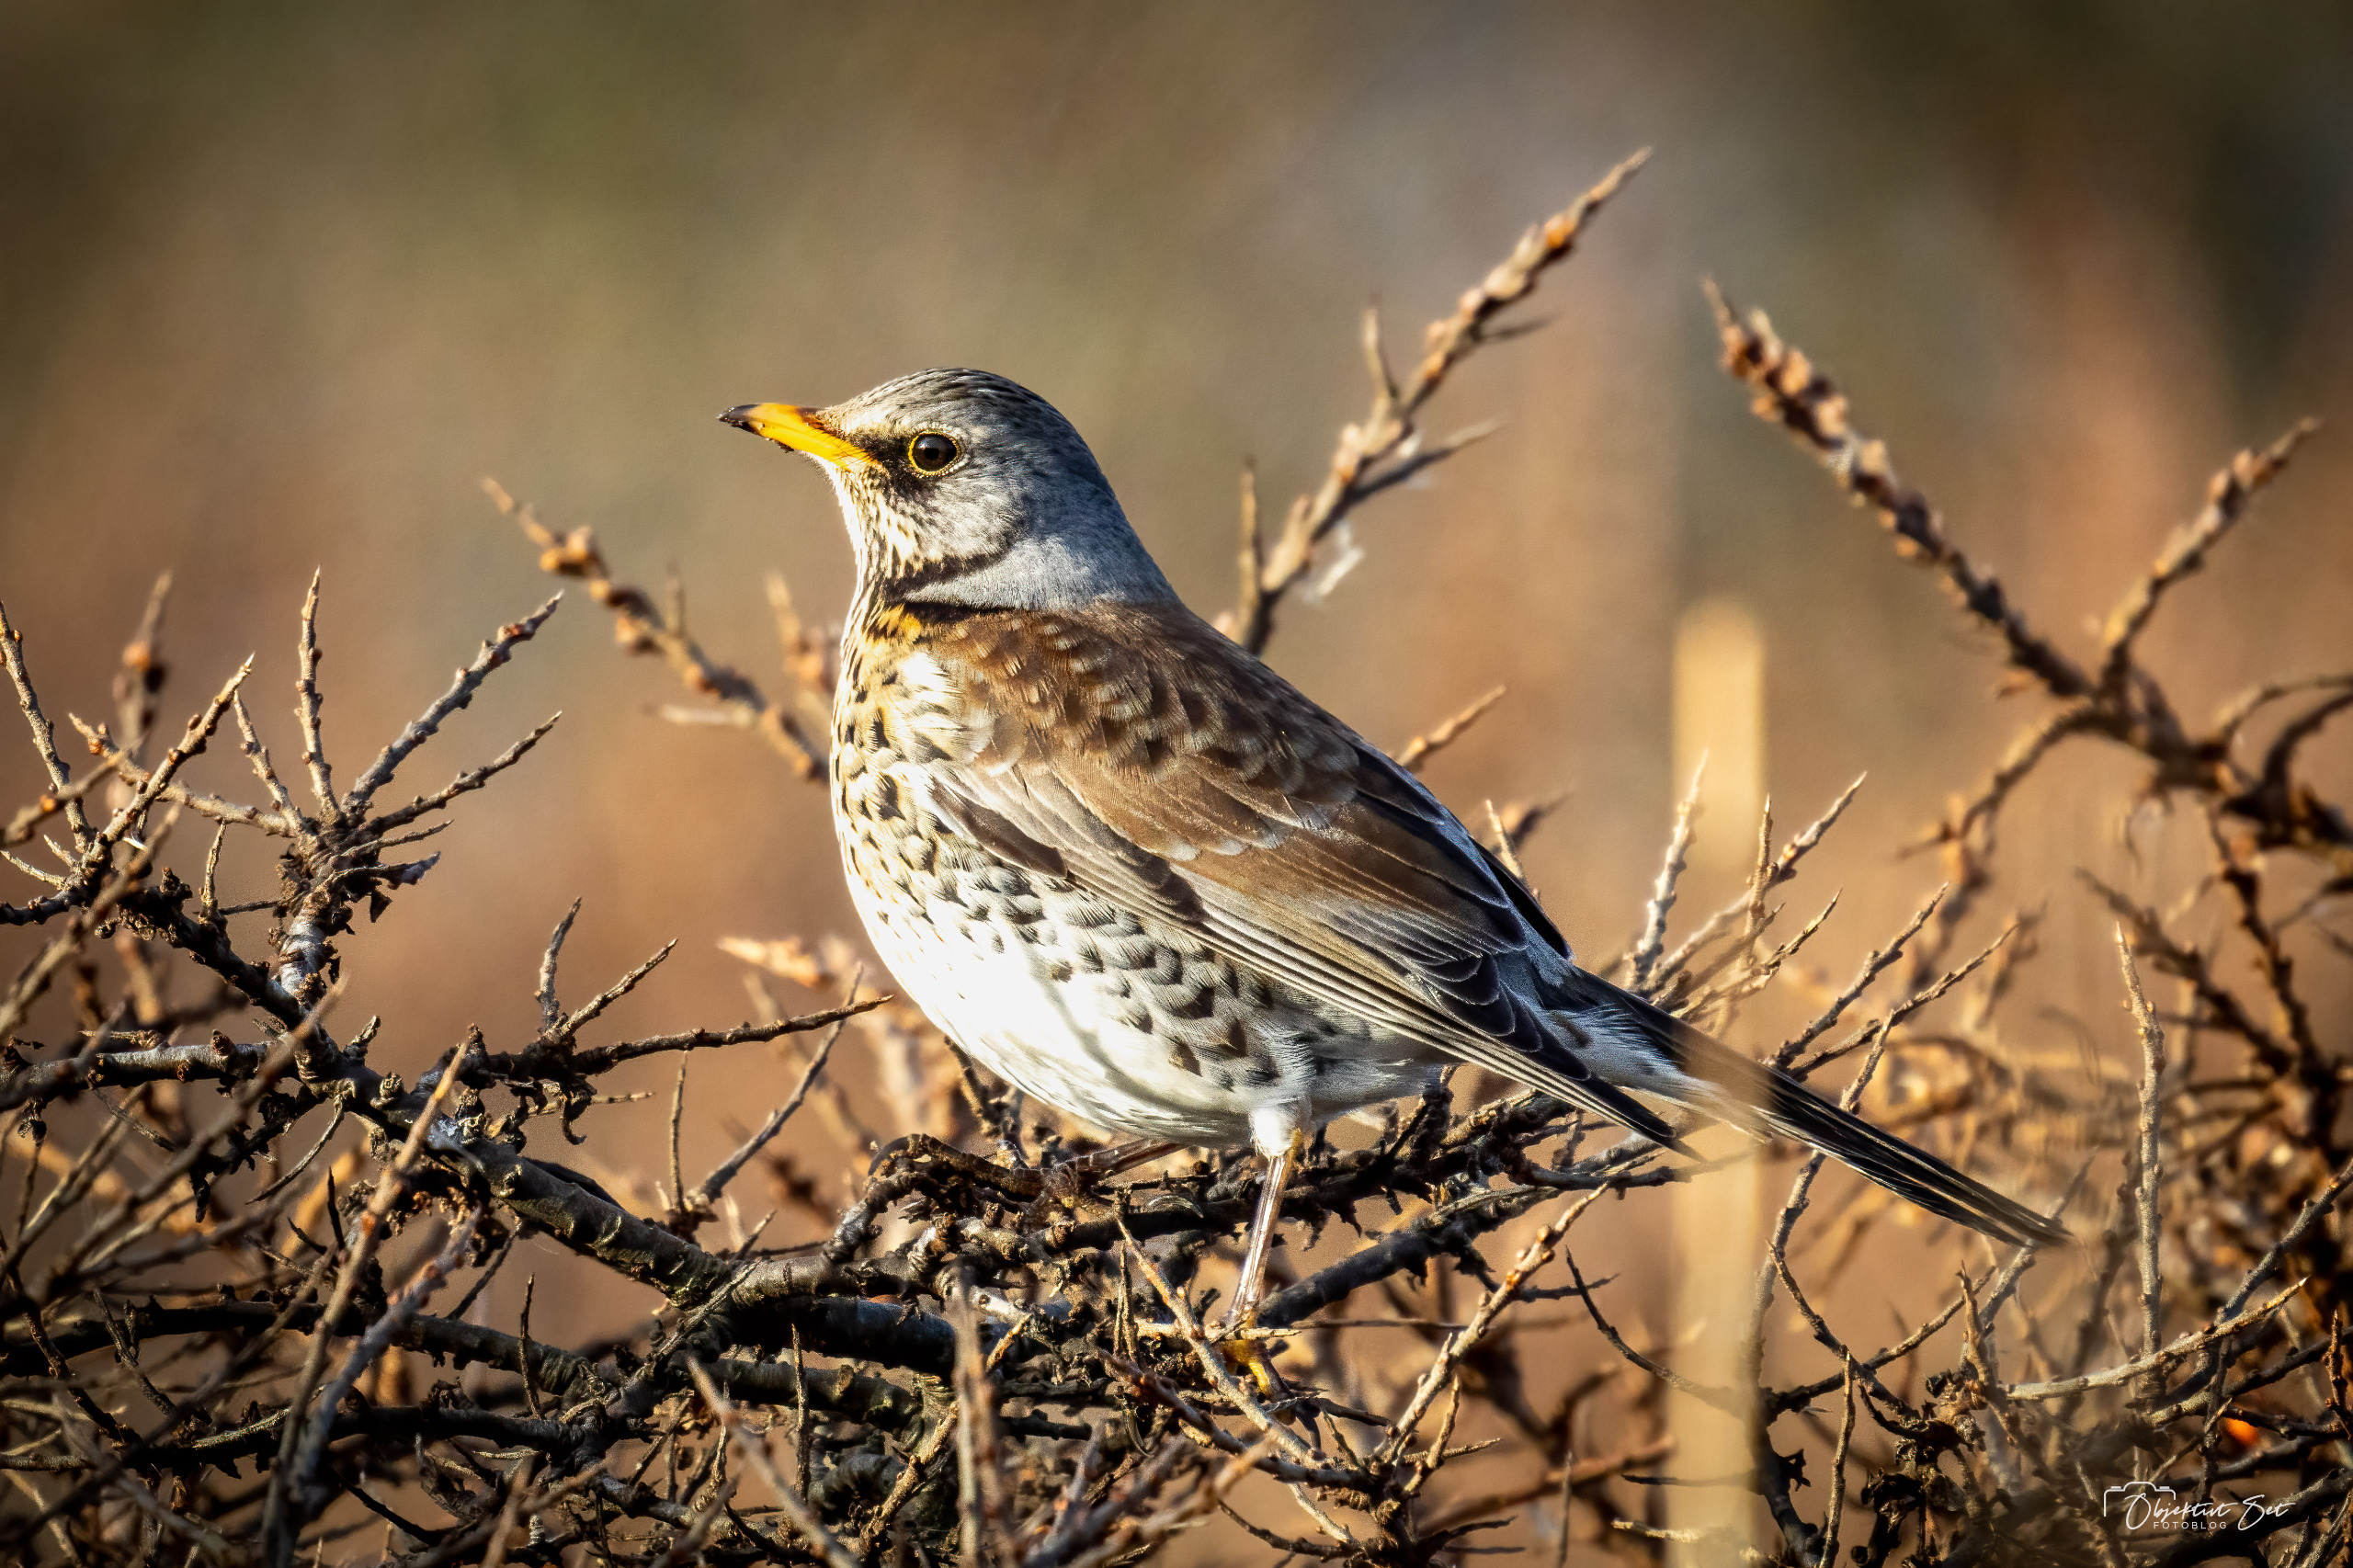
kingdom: Animalia
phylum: Chordata
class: Aves
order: Passeriformes
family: Turdidae
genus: Turdus
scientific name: Turdus pilaris
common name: Sjagger
